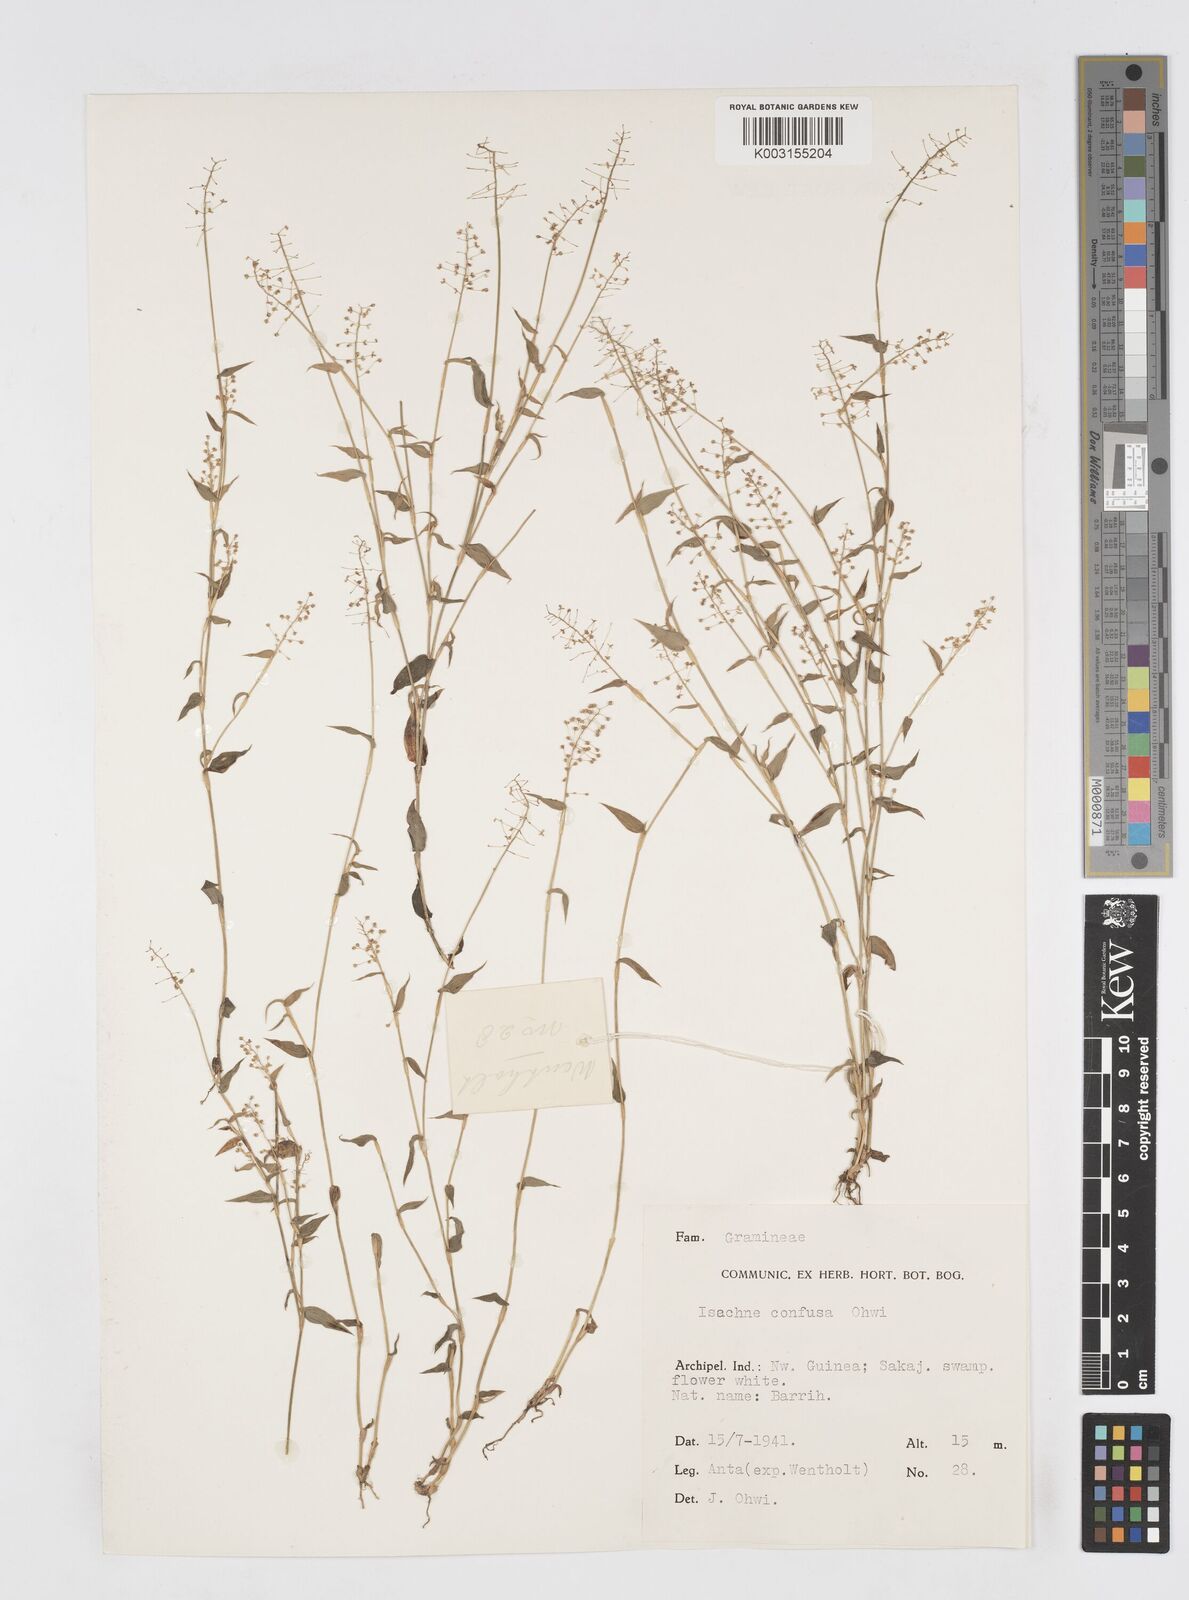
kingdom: Plantae
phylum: Tracheophyta
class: Liliopsida
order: Poales
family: Poaceae
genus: Isachne
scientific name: Isachne confusa
